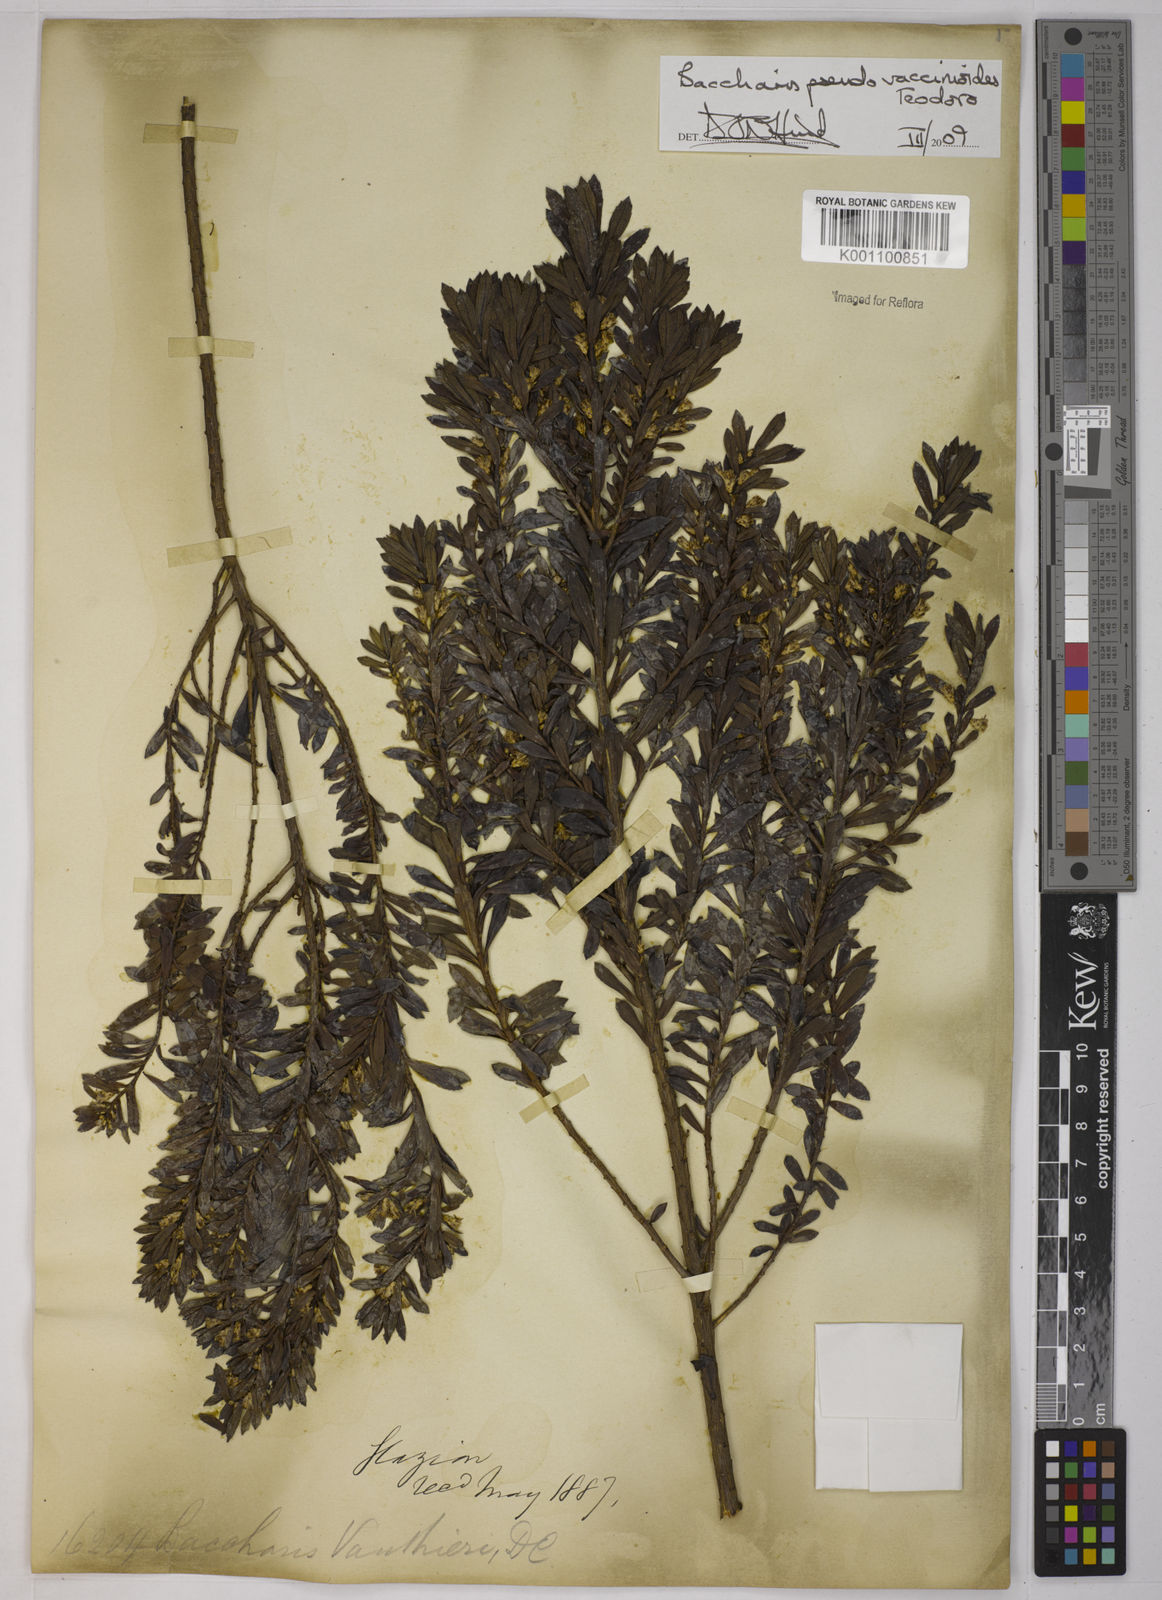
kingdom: Plantae
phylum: Tracheophyta
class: Magnoliopsida
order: Asterales
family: Asteraceae
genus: Baccharis
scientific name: Baccharis
